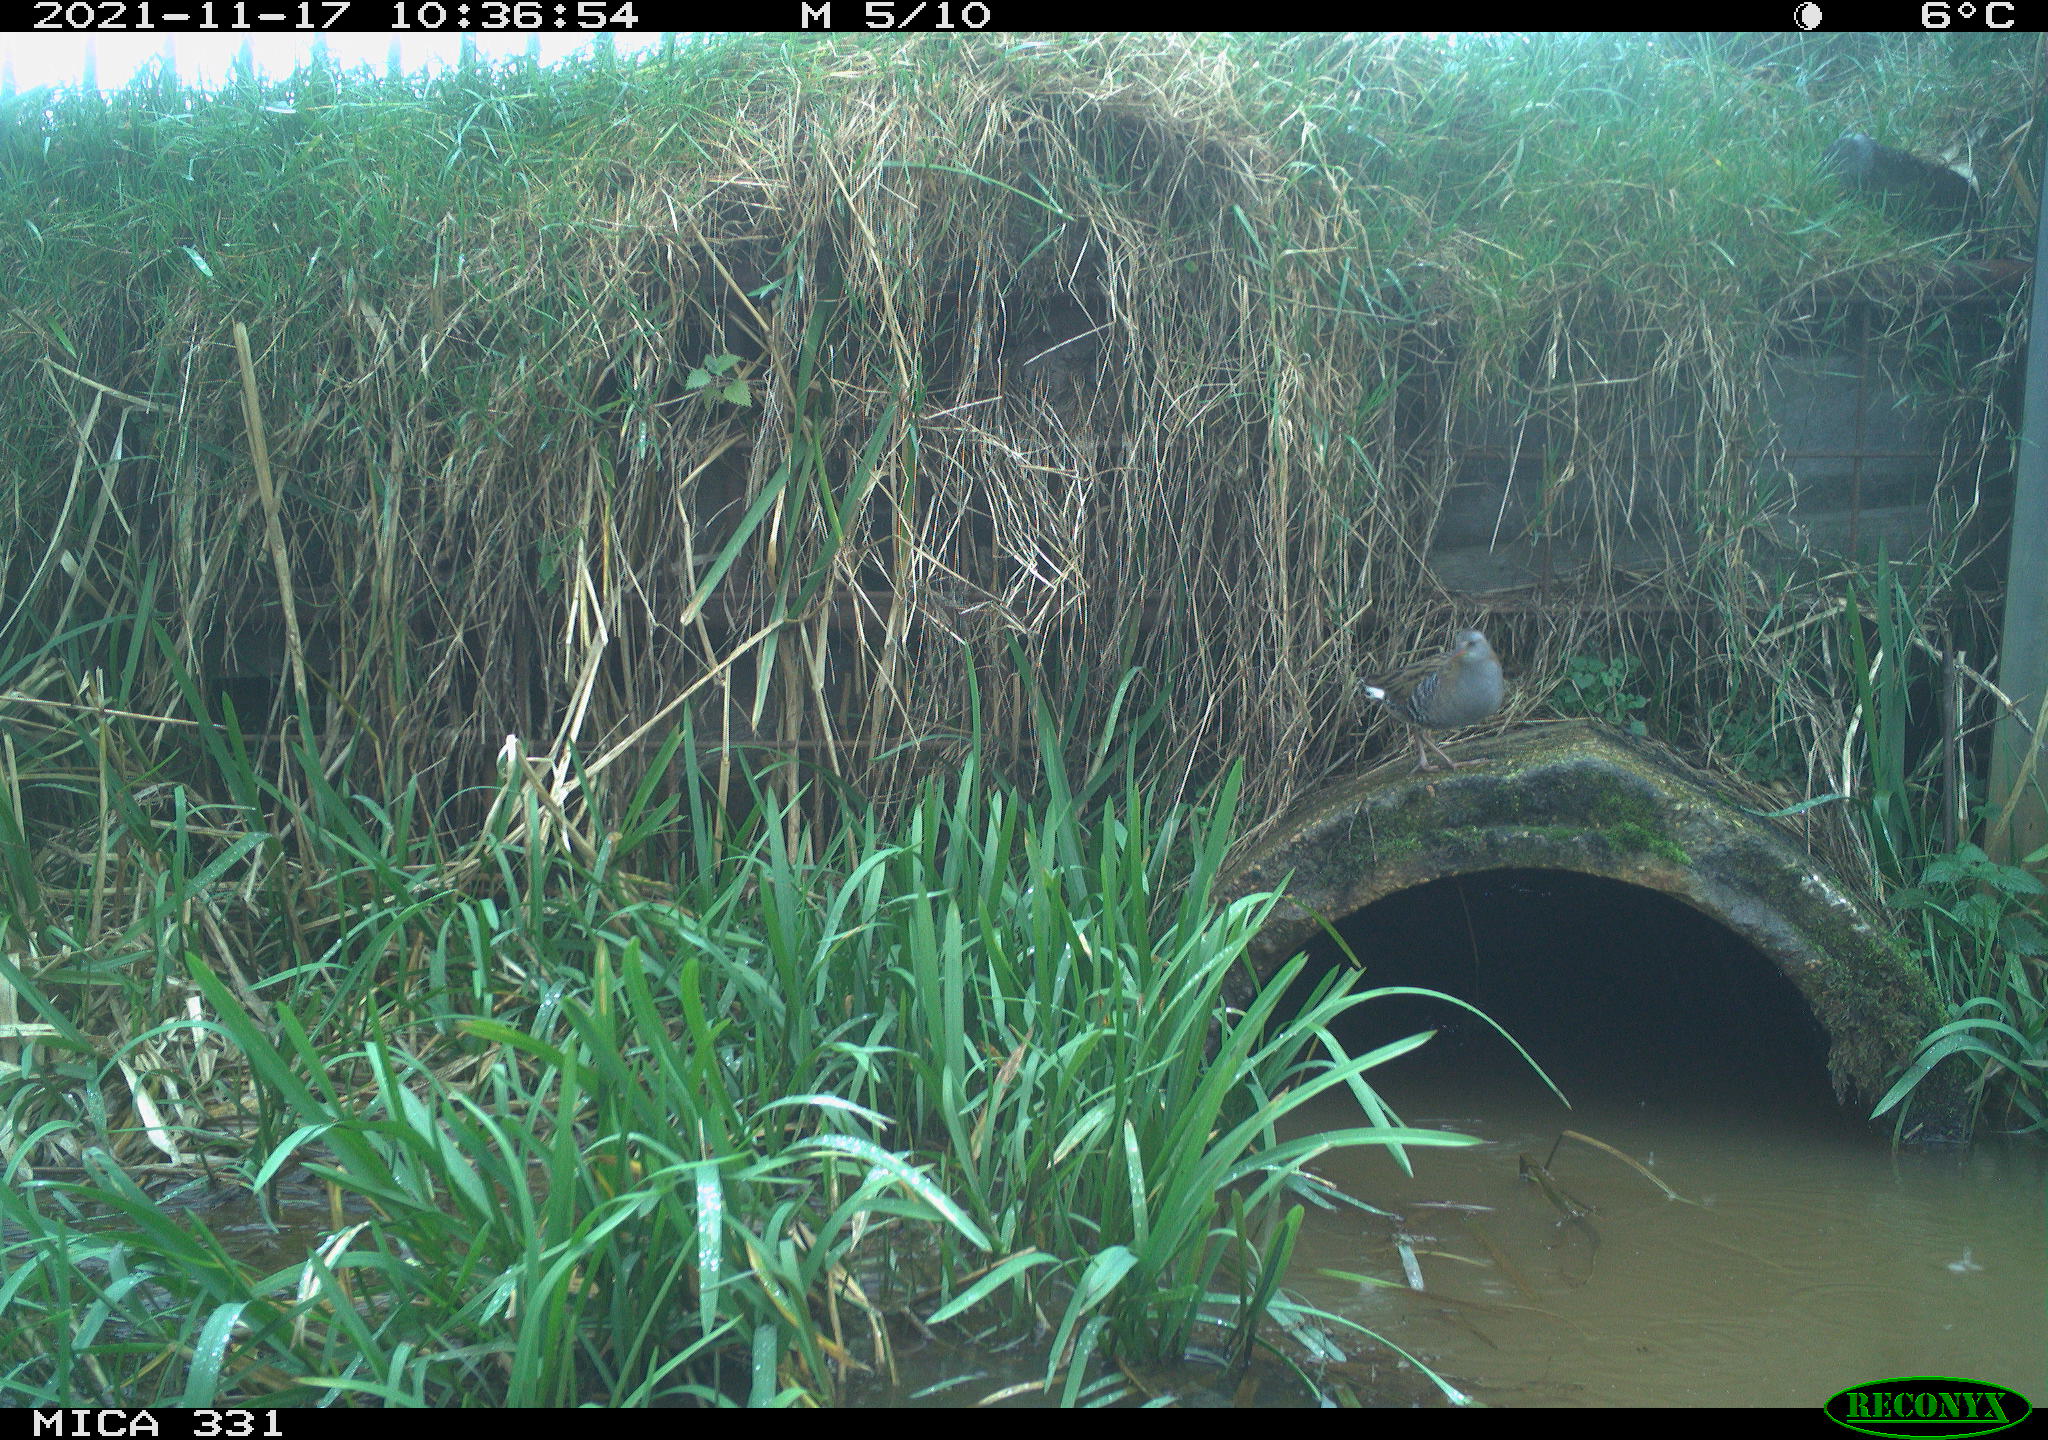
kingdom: Animalia
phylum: Chordata
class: Aves
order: Gruiformes
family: Rallidae
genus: Gallinula
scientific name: Gallinula chloropus
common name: Common moorhen
